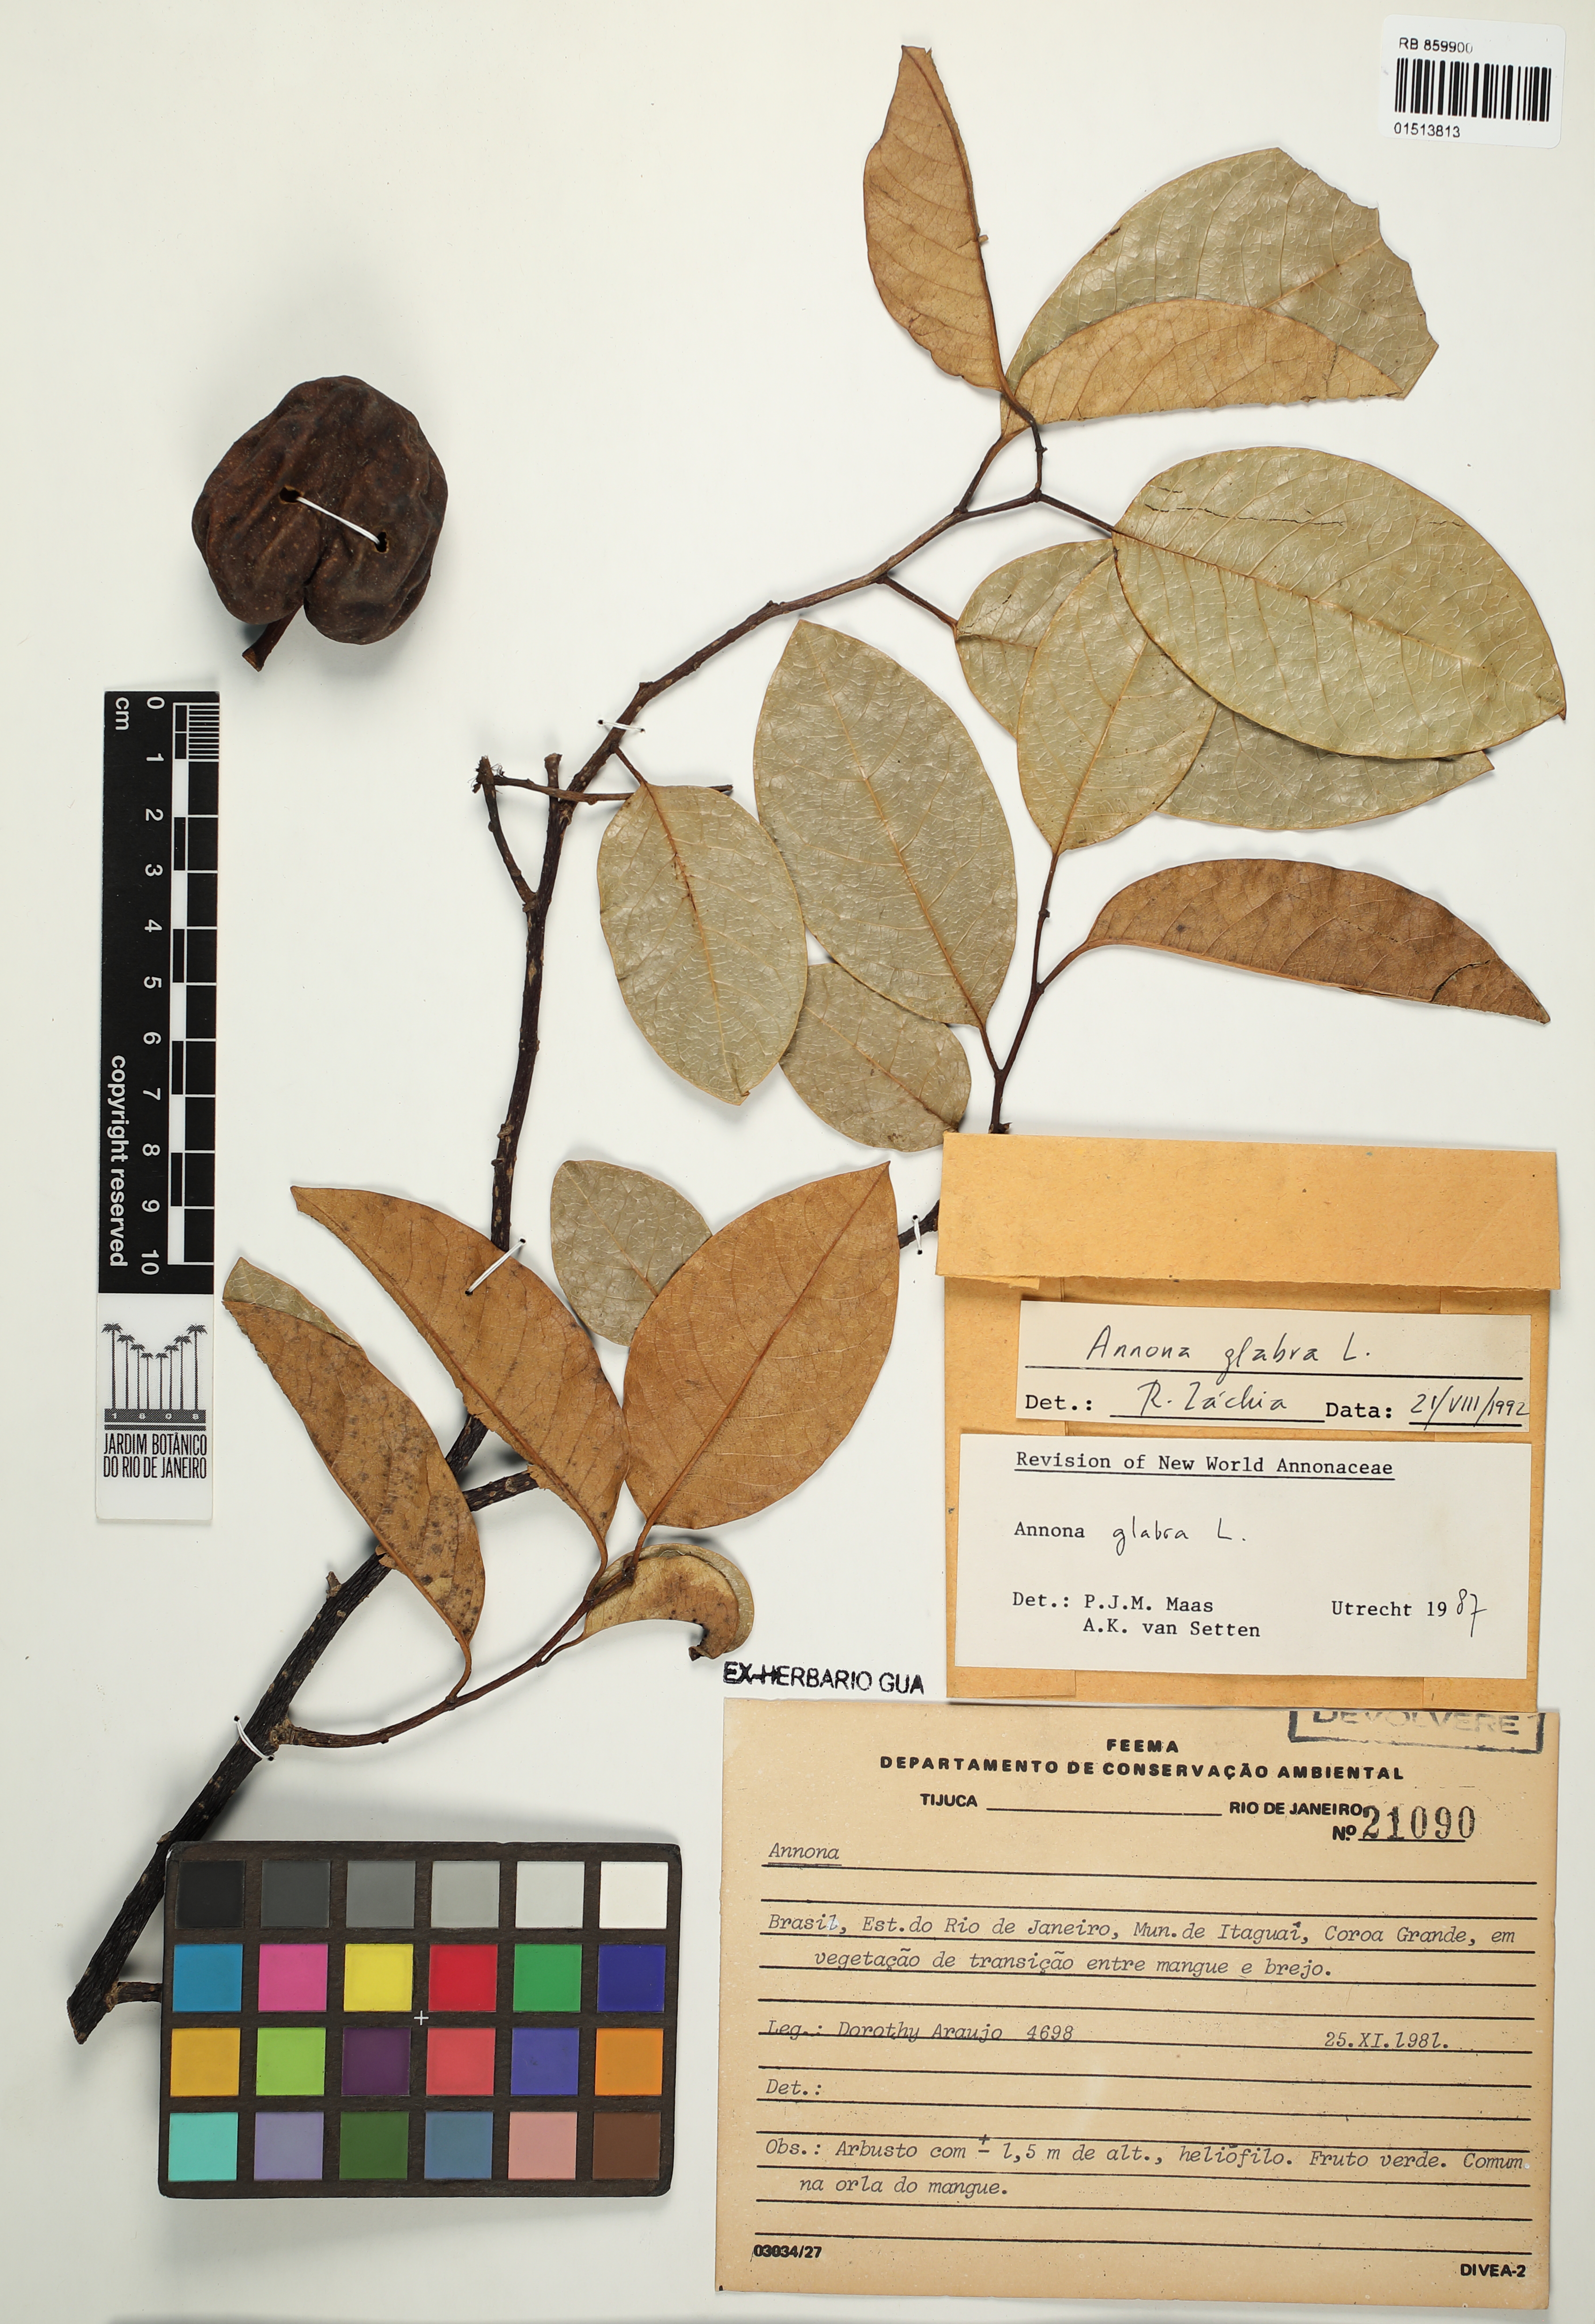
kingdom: Plantae
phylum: Tracheophyta
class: Magnoliopsida
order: Magnoliales
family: Annonaceae
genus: Annona
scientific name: Annona glabra
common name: Monkey apple
